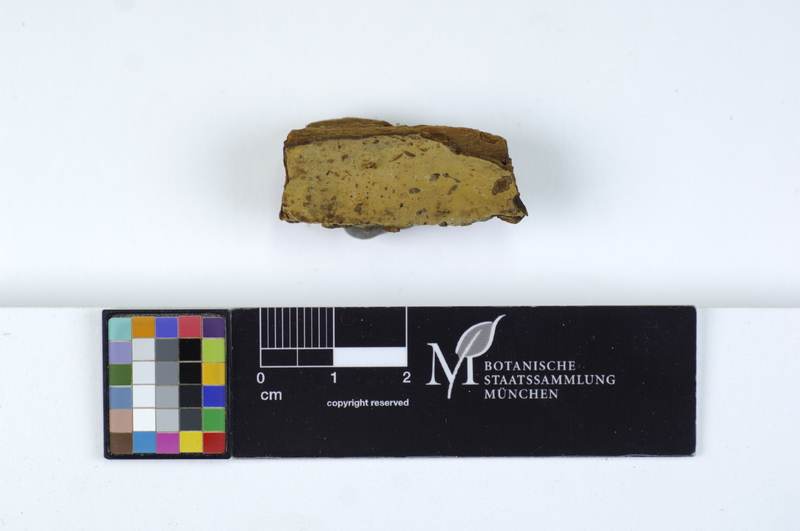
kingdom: Fungi
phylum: Basidiomycota
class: Agaricomycetes
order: Polyporales
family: Sparassidaceae
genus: Crustoderma
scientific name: Crustoderma dryinum
